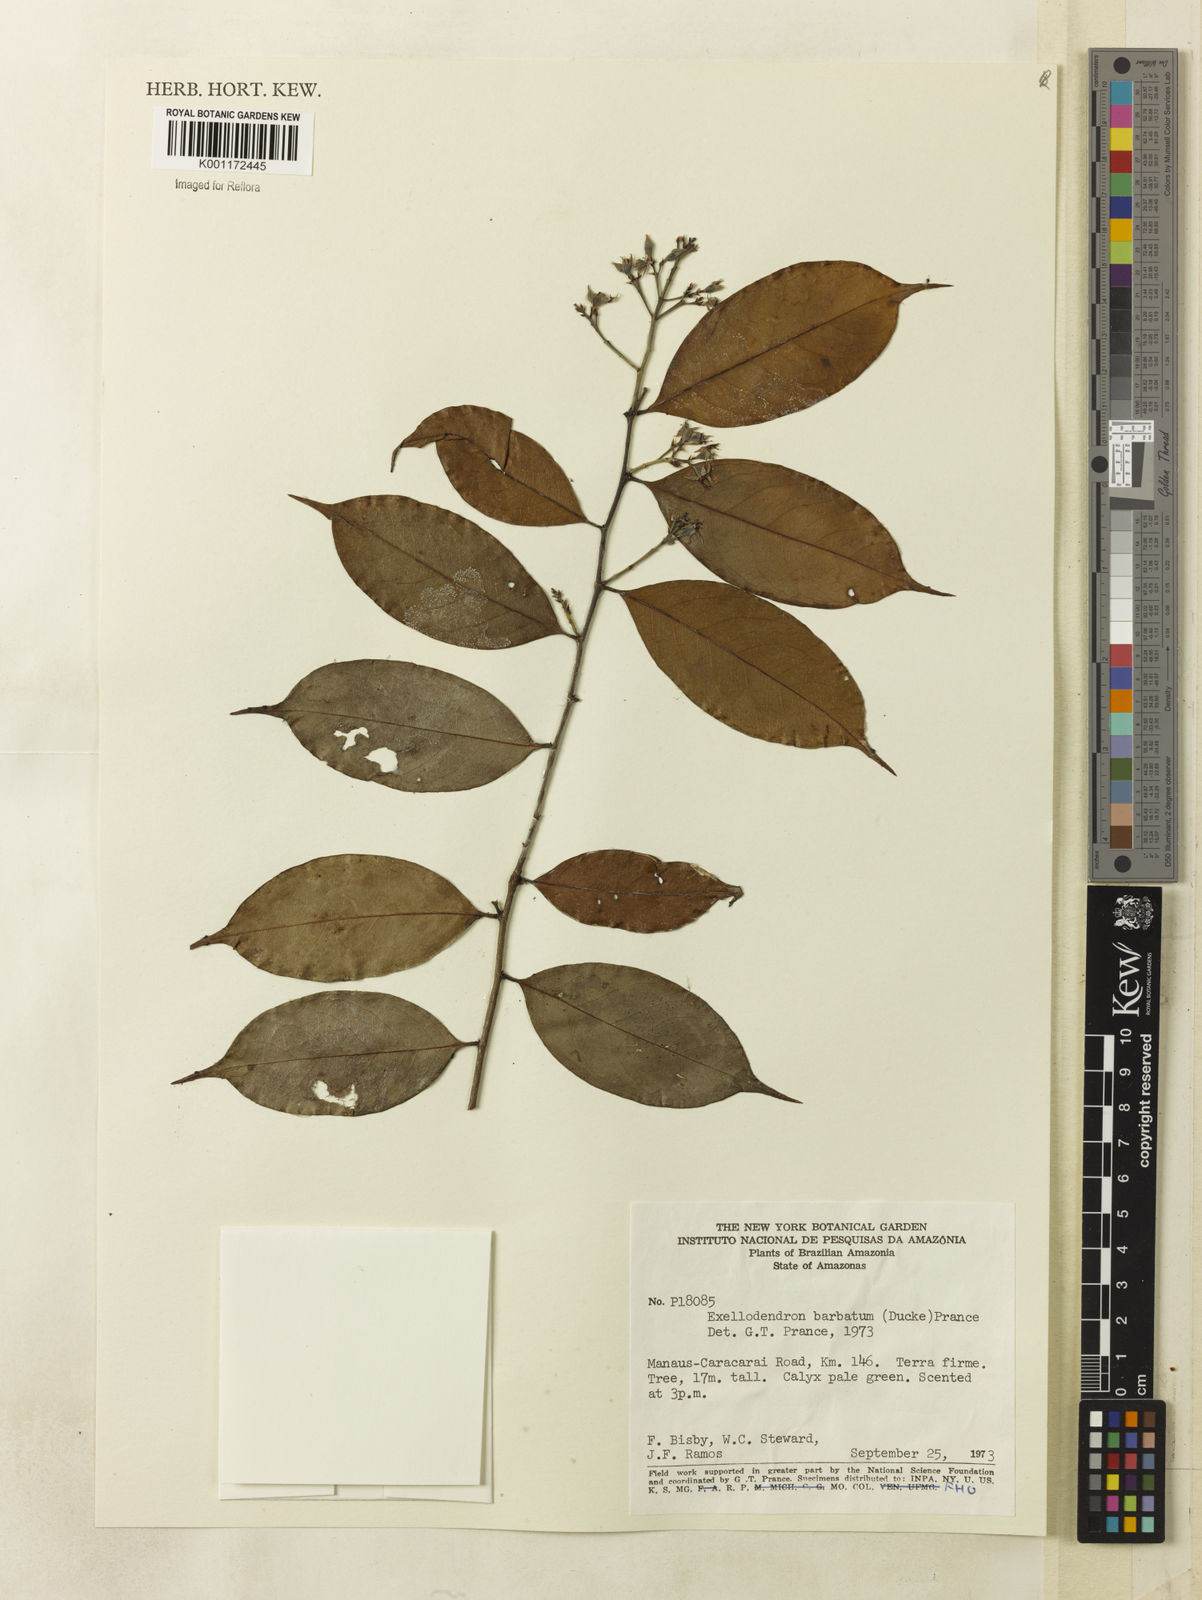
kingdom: Plantae
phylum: Tracheophyta
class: Magnoliopsida
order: Malpighiales
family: Chrysobalanaceae
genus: Atuna
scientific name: Atuna
